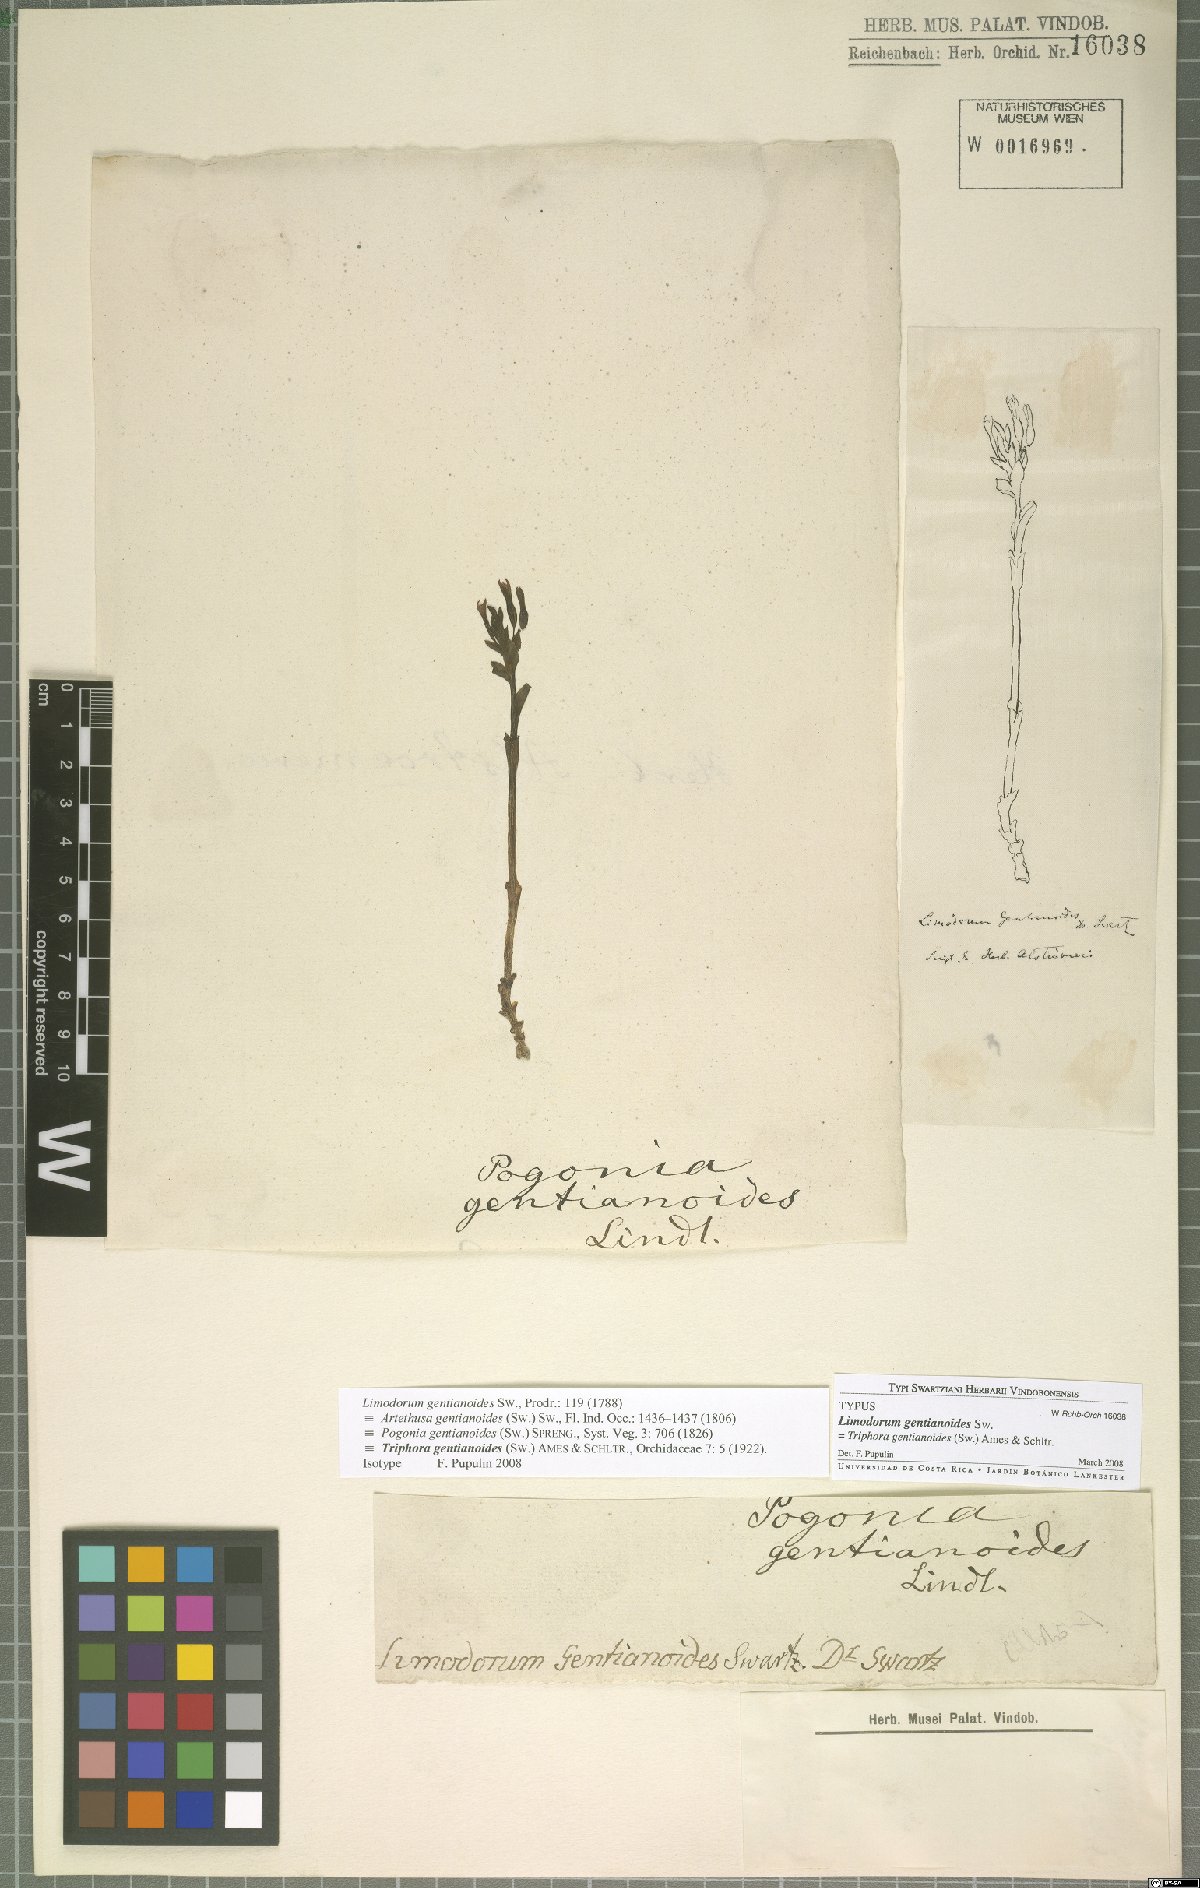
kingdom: Plantae
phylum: Tracheophyta
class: Liliopsida
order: Asparagales
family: Orchidaceae
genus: Triphora
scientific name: Triphora gentianoides
